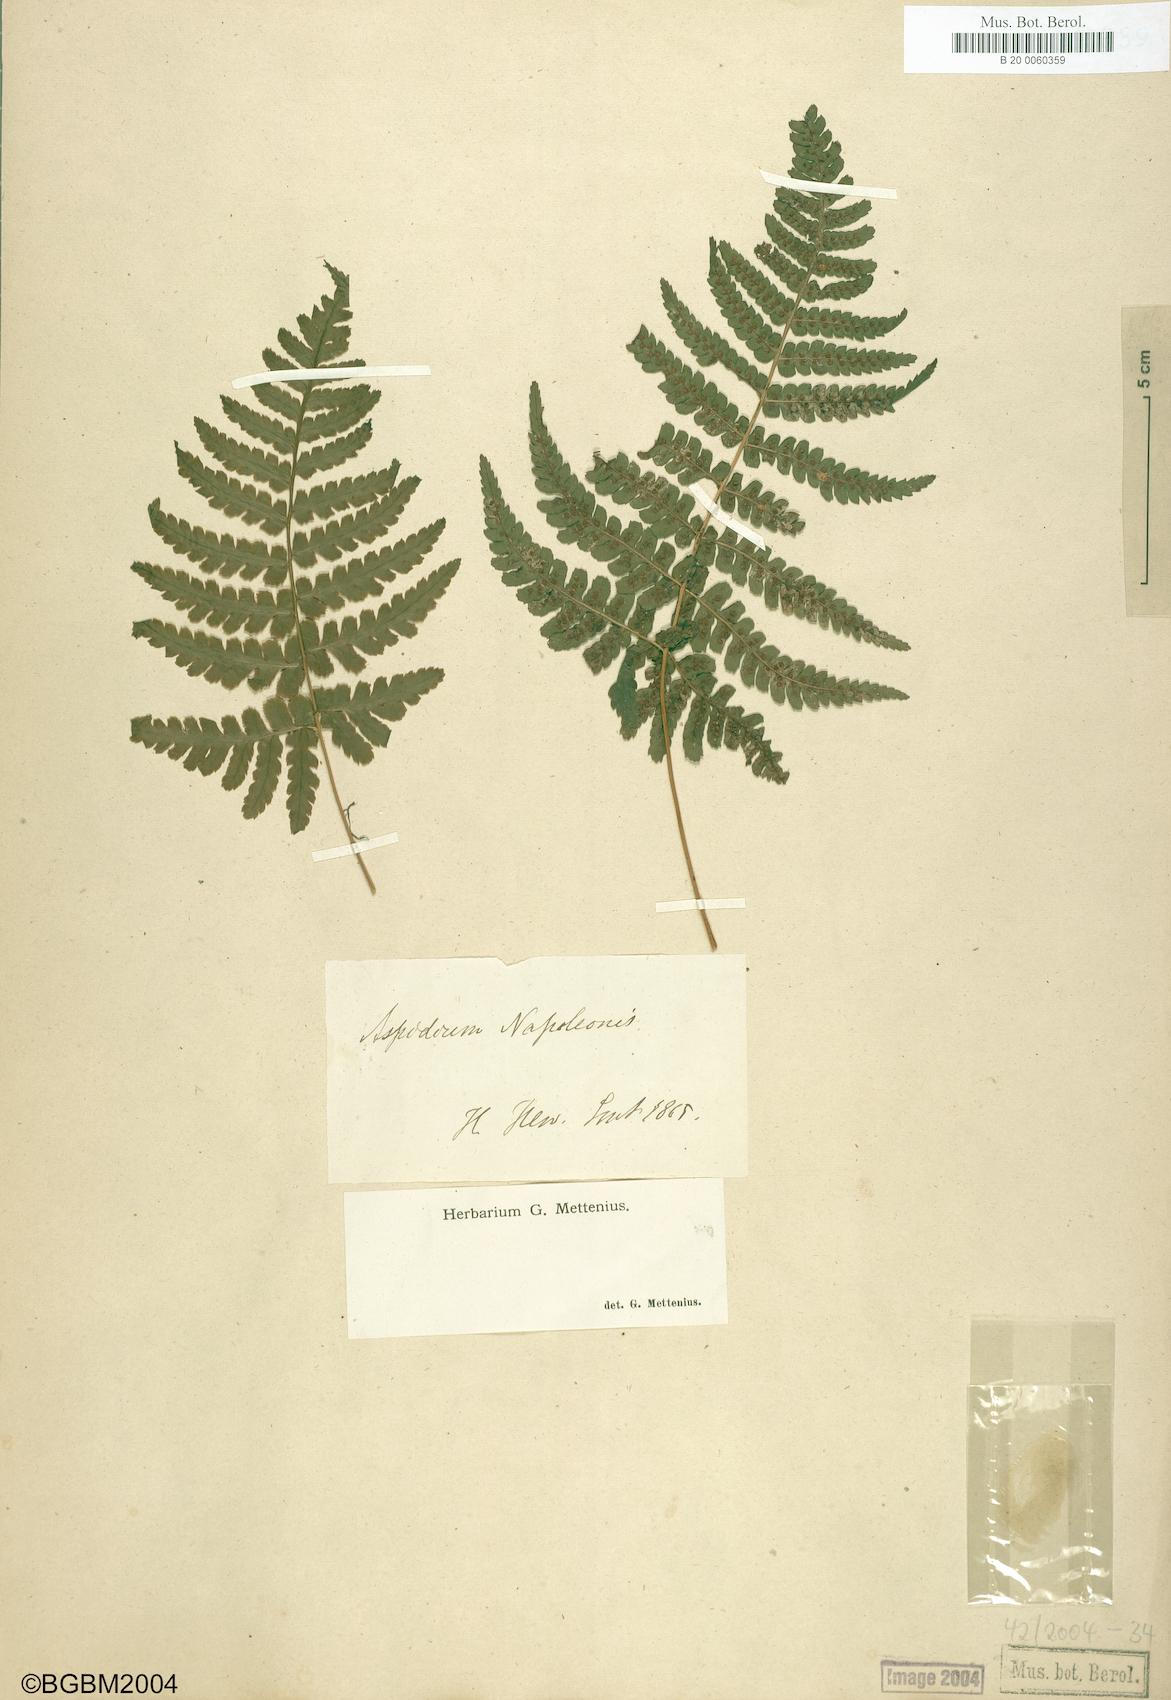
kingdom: Plantae
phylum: Tracheophyta
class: Polypodiopsida
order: Polypodiales
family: Dryopteridaceae
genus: Dryopteris
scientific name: Dryopteris napoleonis
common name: Small kidney fern
